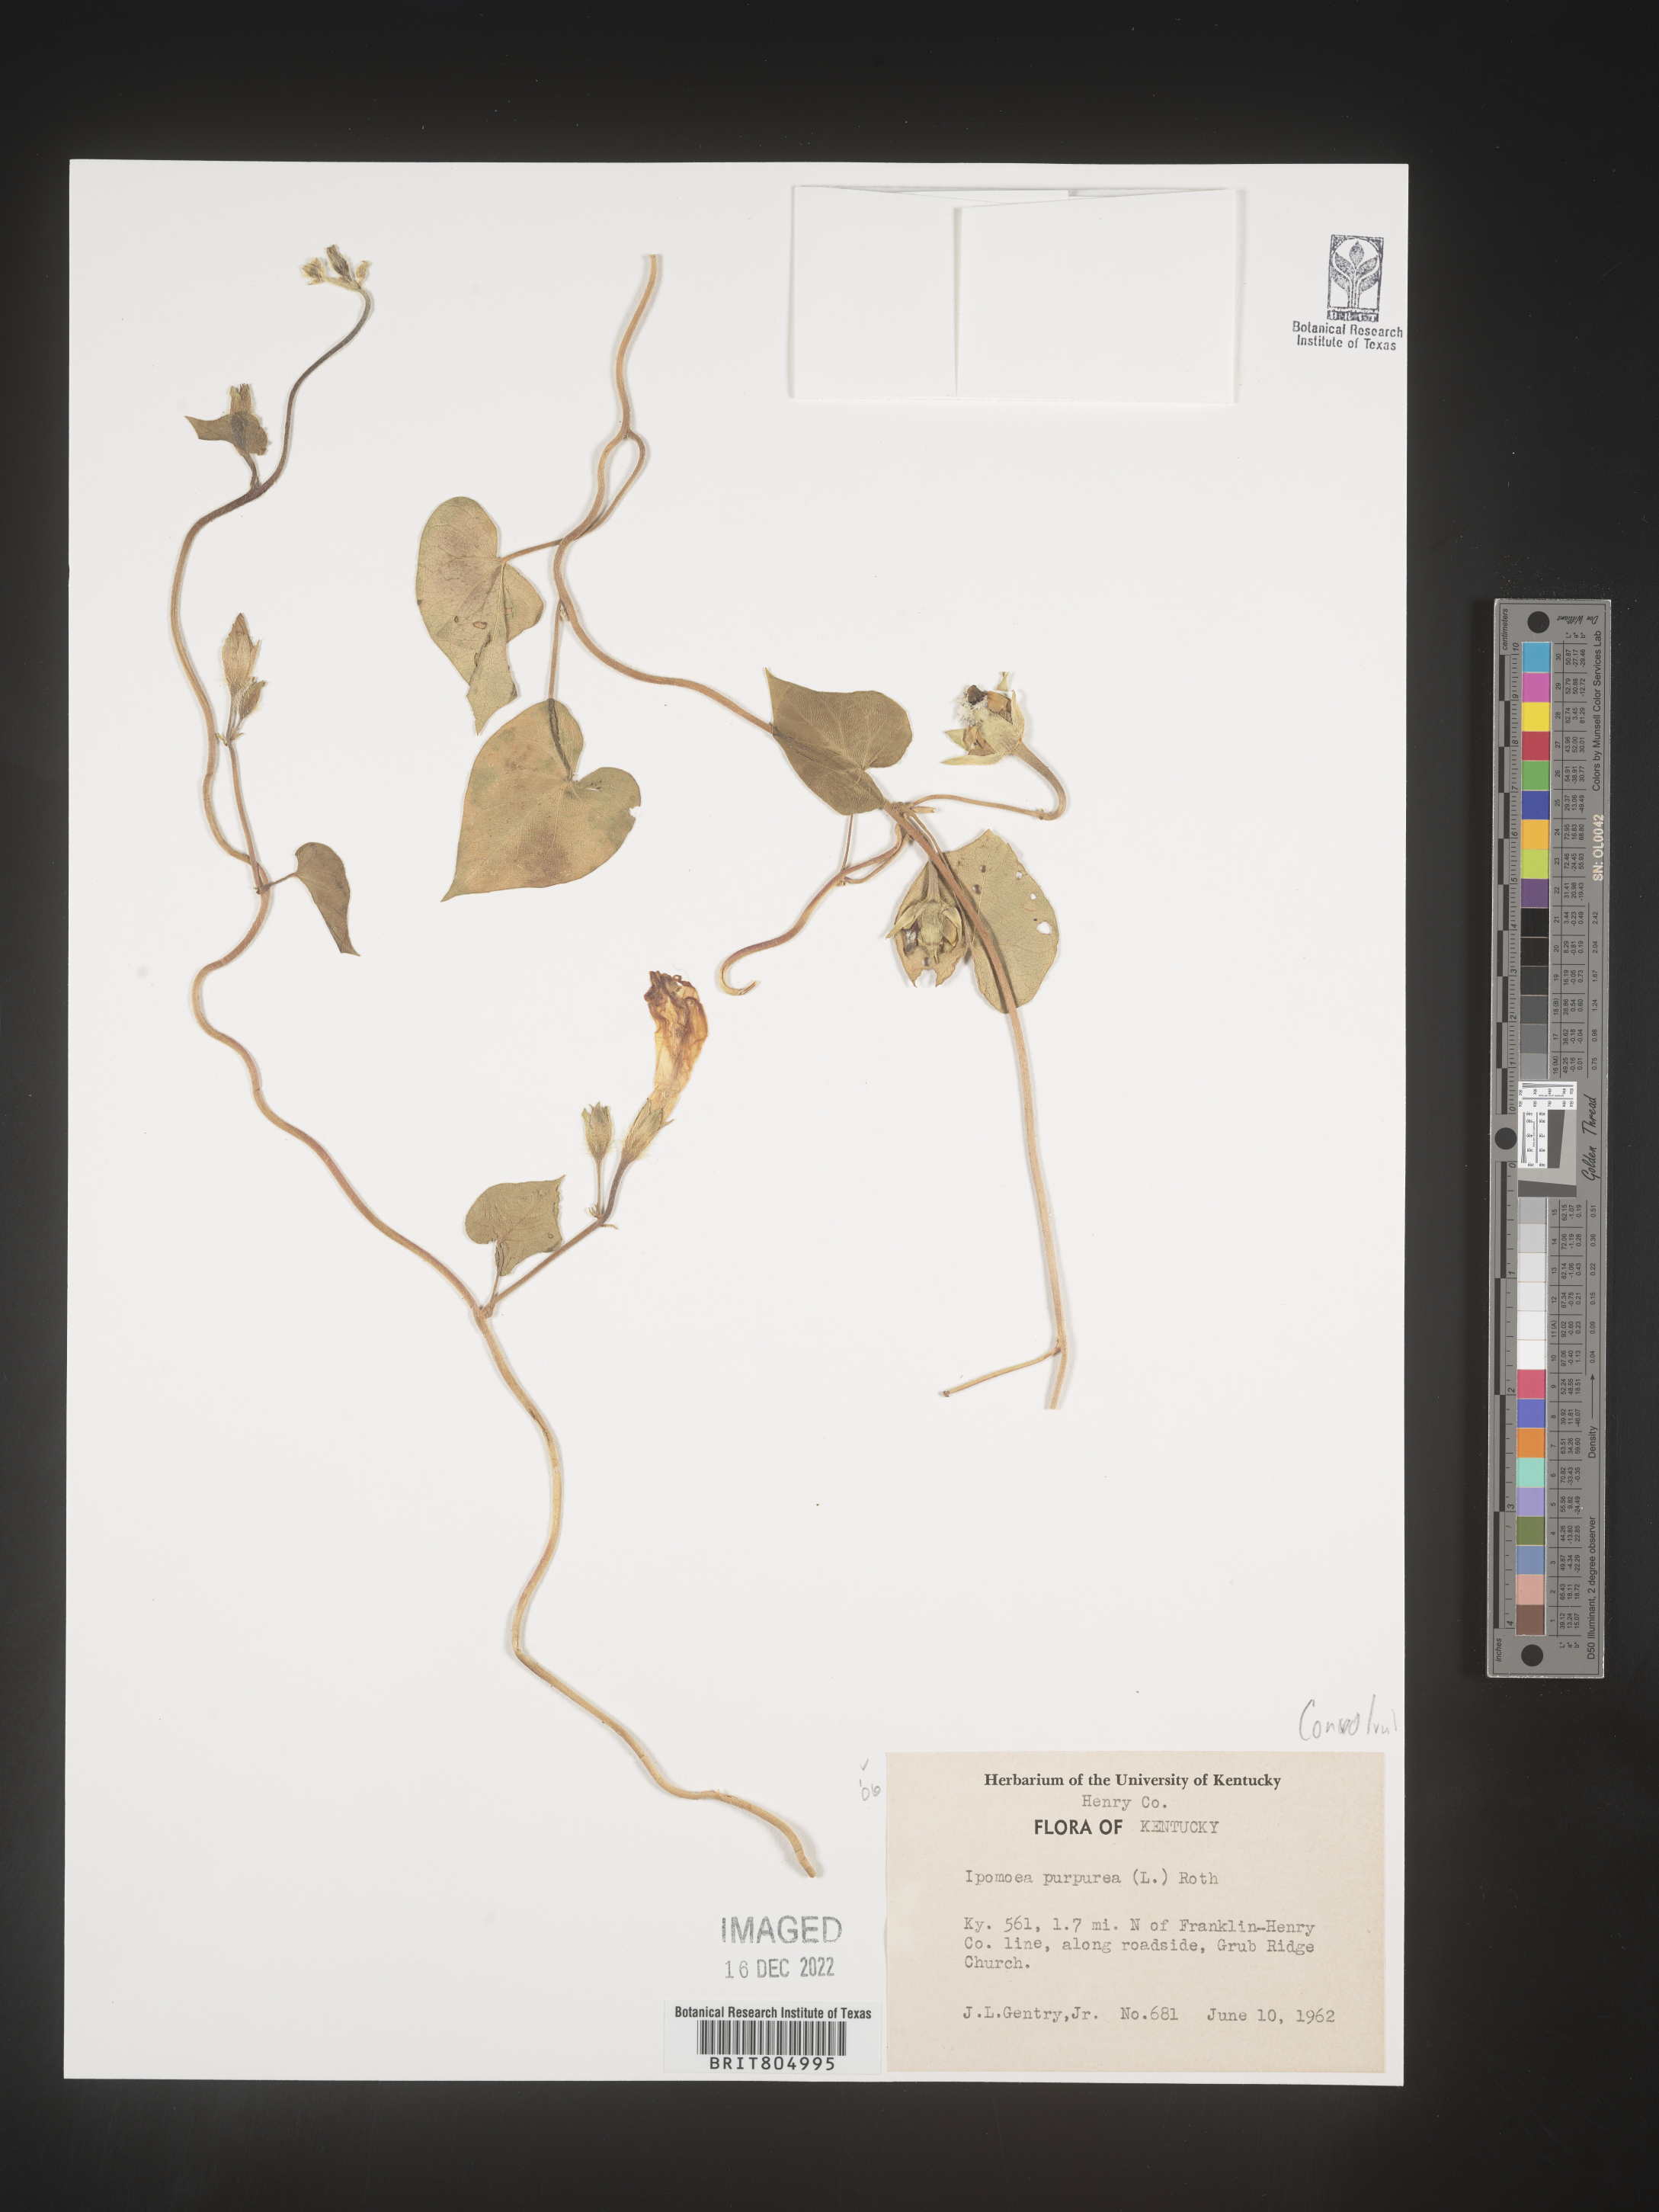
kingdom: Plantae
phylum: Tracheophyta
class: Magnoliopsida
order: Solanales
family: Convolvulaceae
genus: Ipomoea
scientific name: Ipomoea purpurea
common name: Common morning-glory
